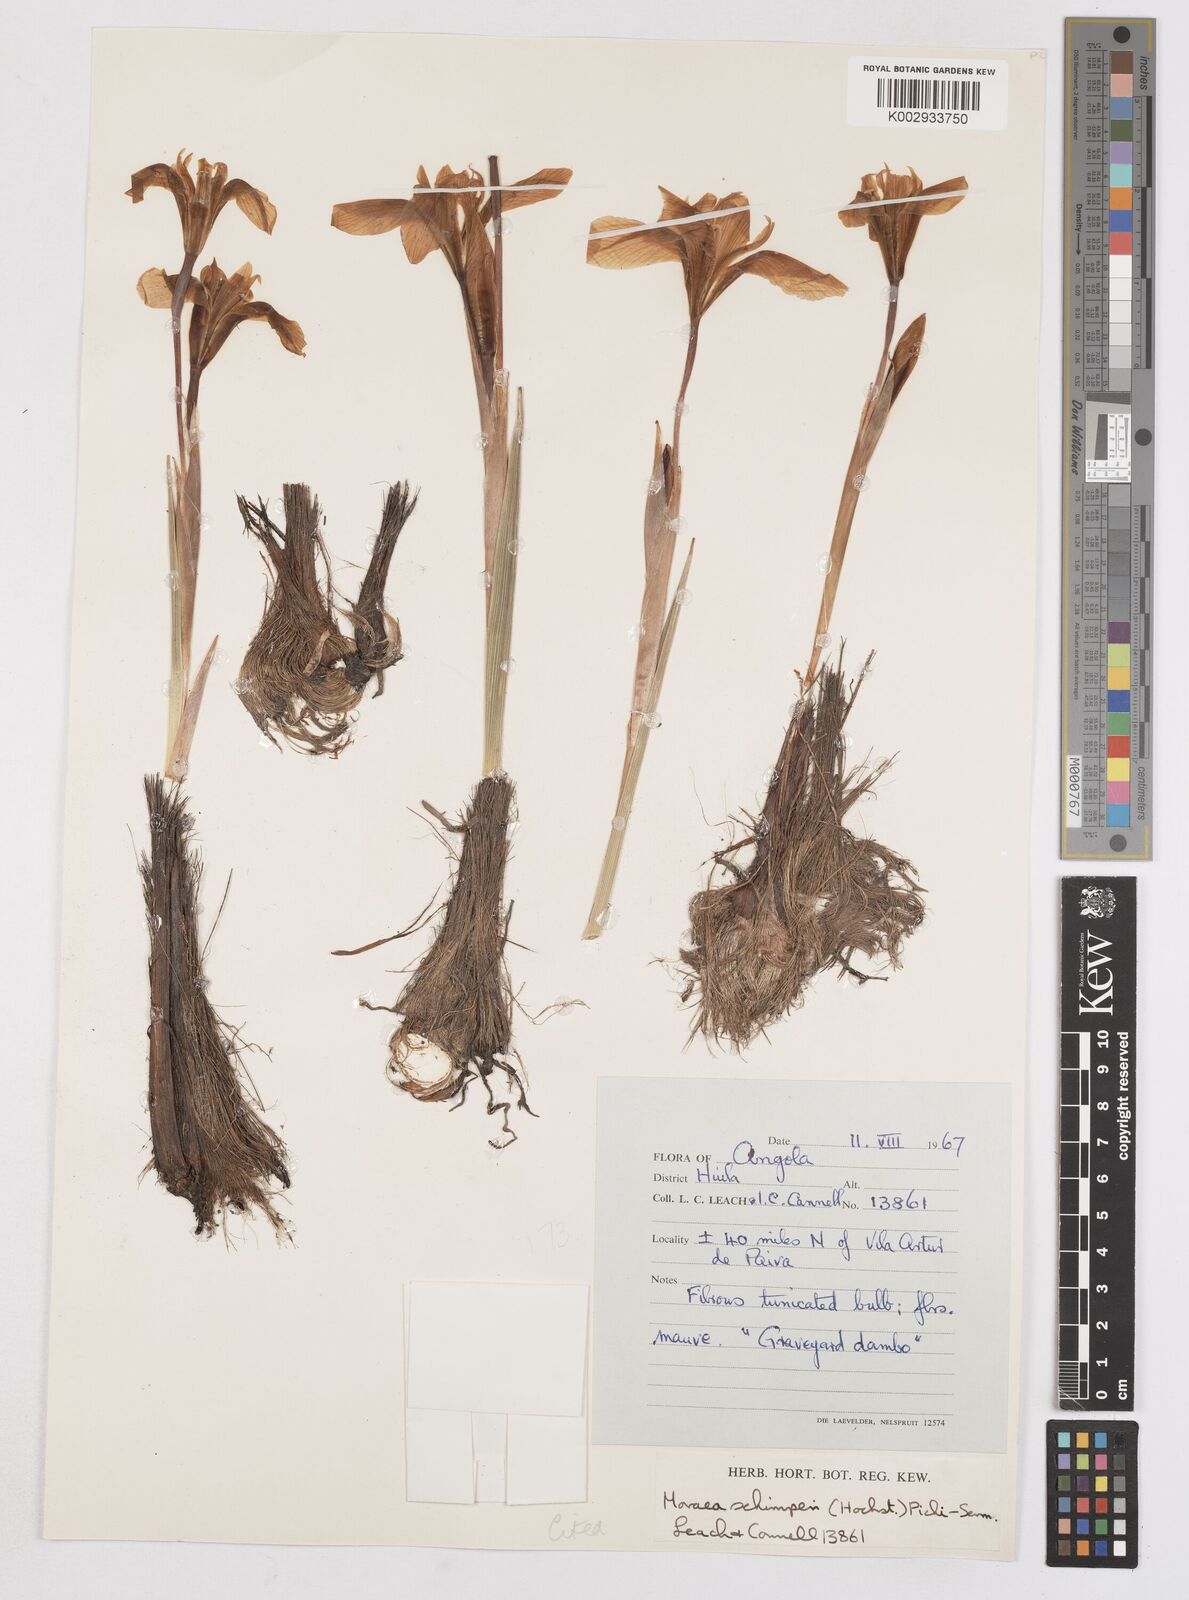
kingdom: Plantae
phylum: Tracheophyta
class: Liliopsida
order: Asparagales
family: Iridaceae
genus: Moraea
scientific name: Moraea schimperi
